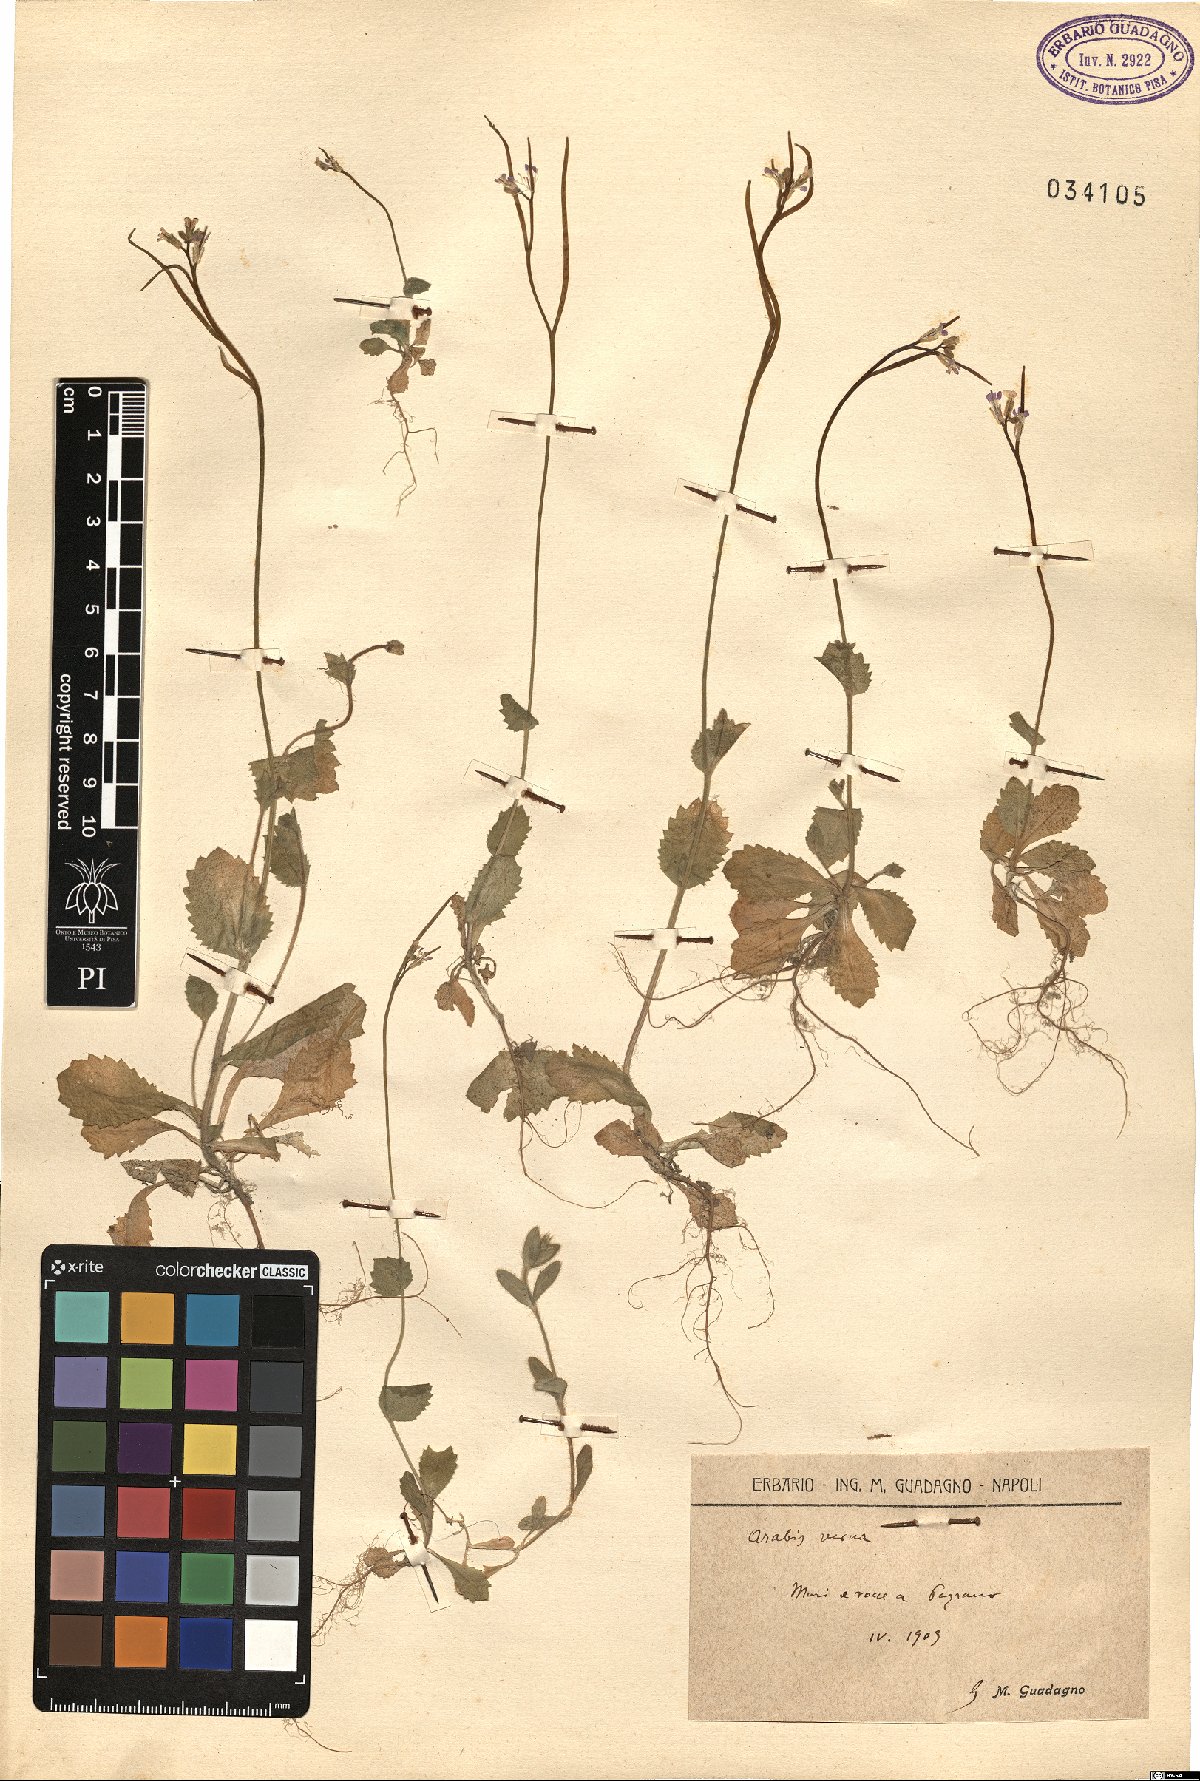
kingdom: Plantae
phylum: Tracheophyta
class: Magnoliopsida
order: Brassicales
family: Brassicaceae
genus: Arabis
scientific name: Arabis verna
